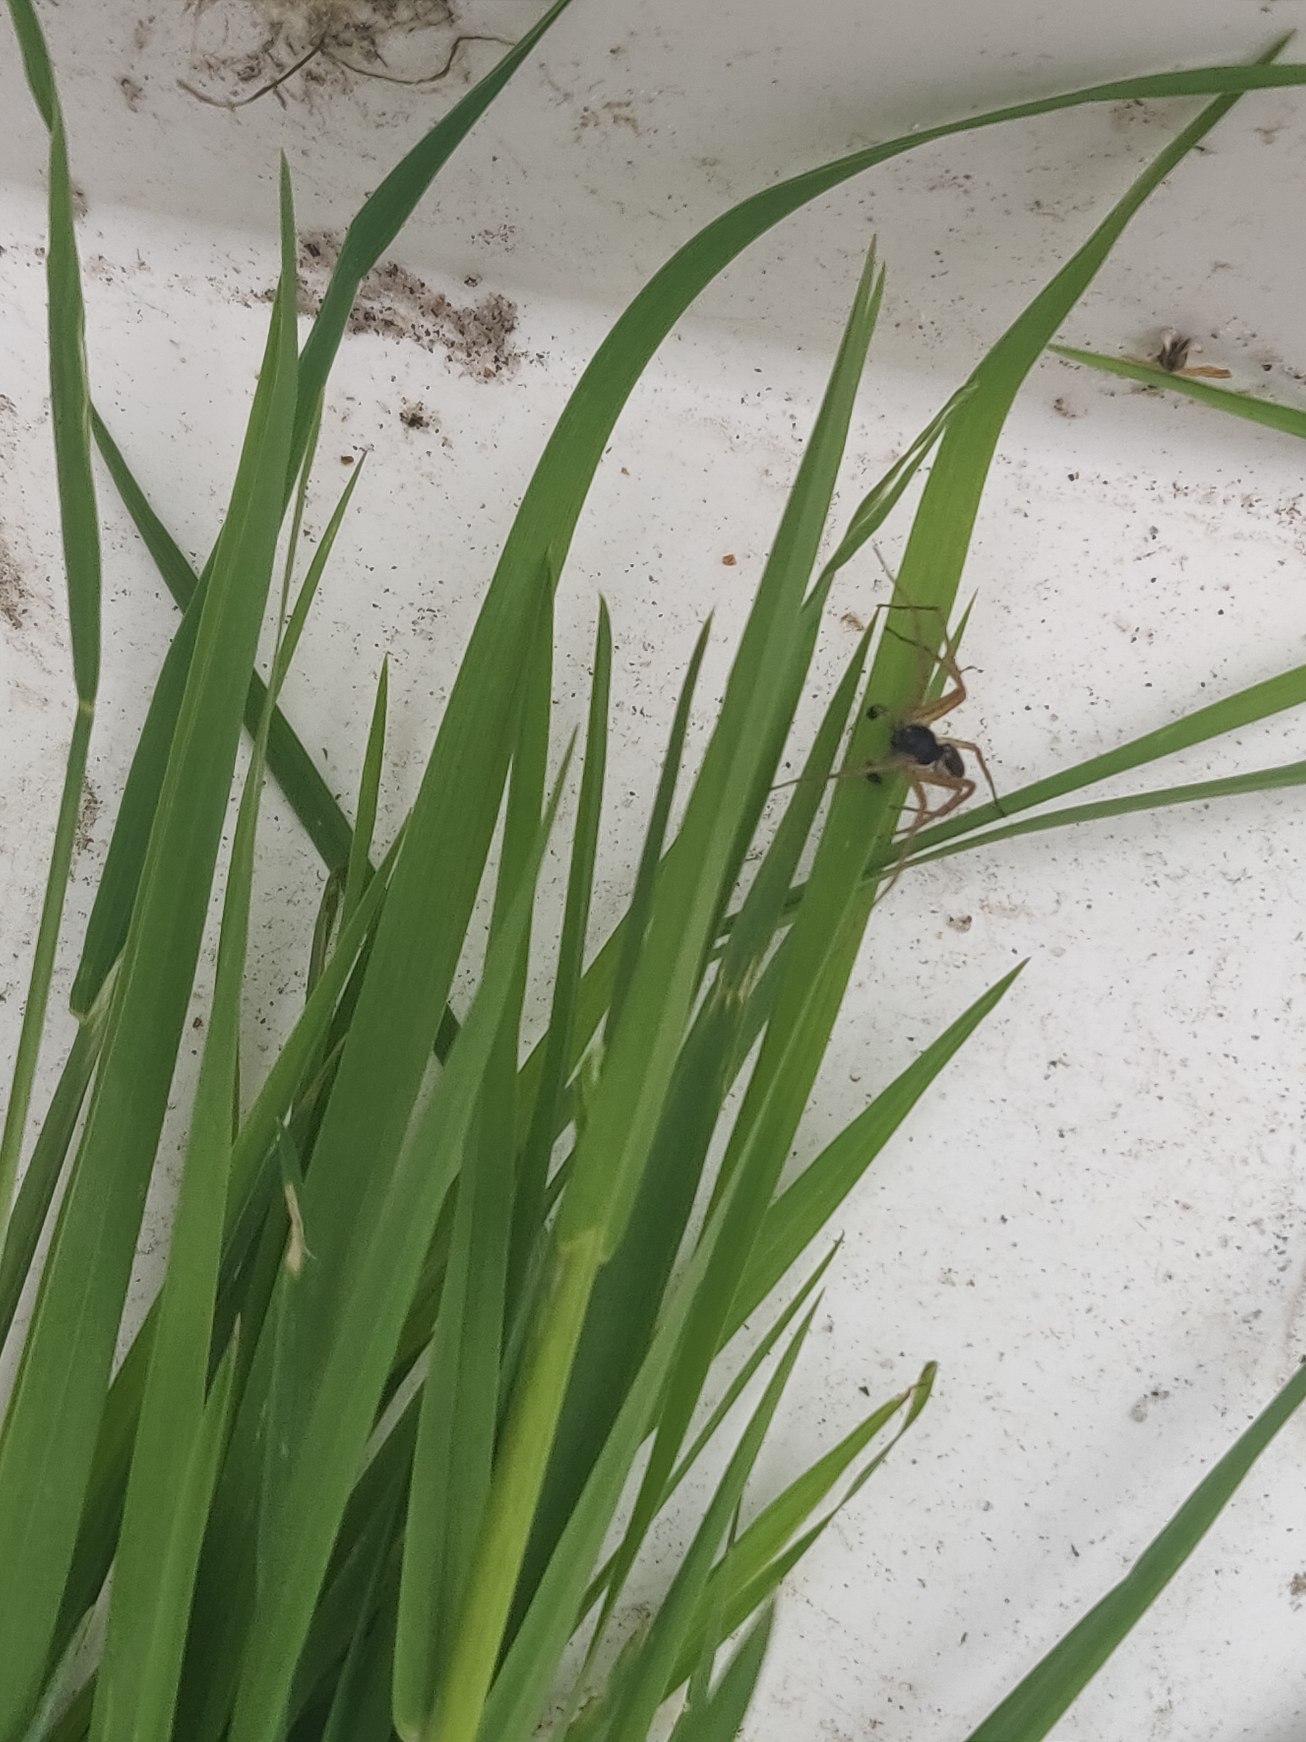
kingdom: Animalia
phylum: Arthropoda
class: Arachnida
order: Araneae
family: Philodromidae
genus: Philodromus
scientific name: Philodromus dispar
